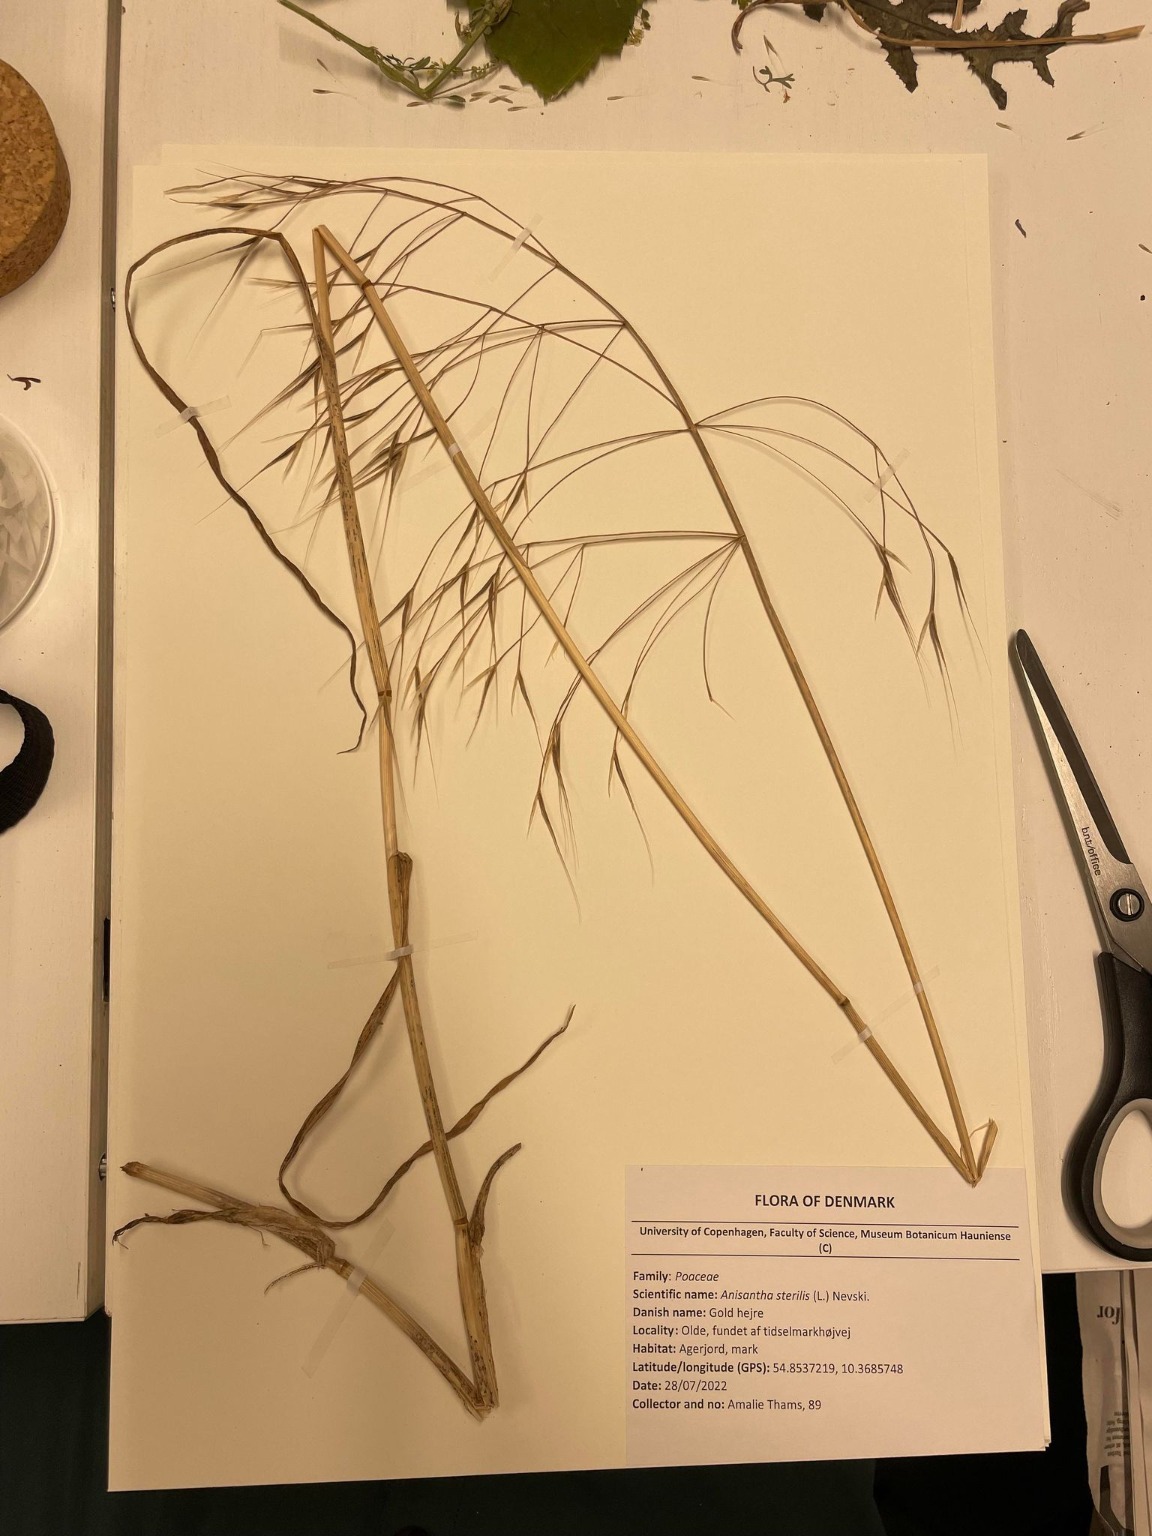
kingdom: Plantae
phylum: Tracheophyta
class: Liliopsida
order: Poales
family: Poaceae
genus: Bromus
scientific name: Bromus sterilis
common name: Gold hejre
